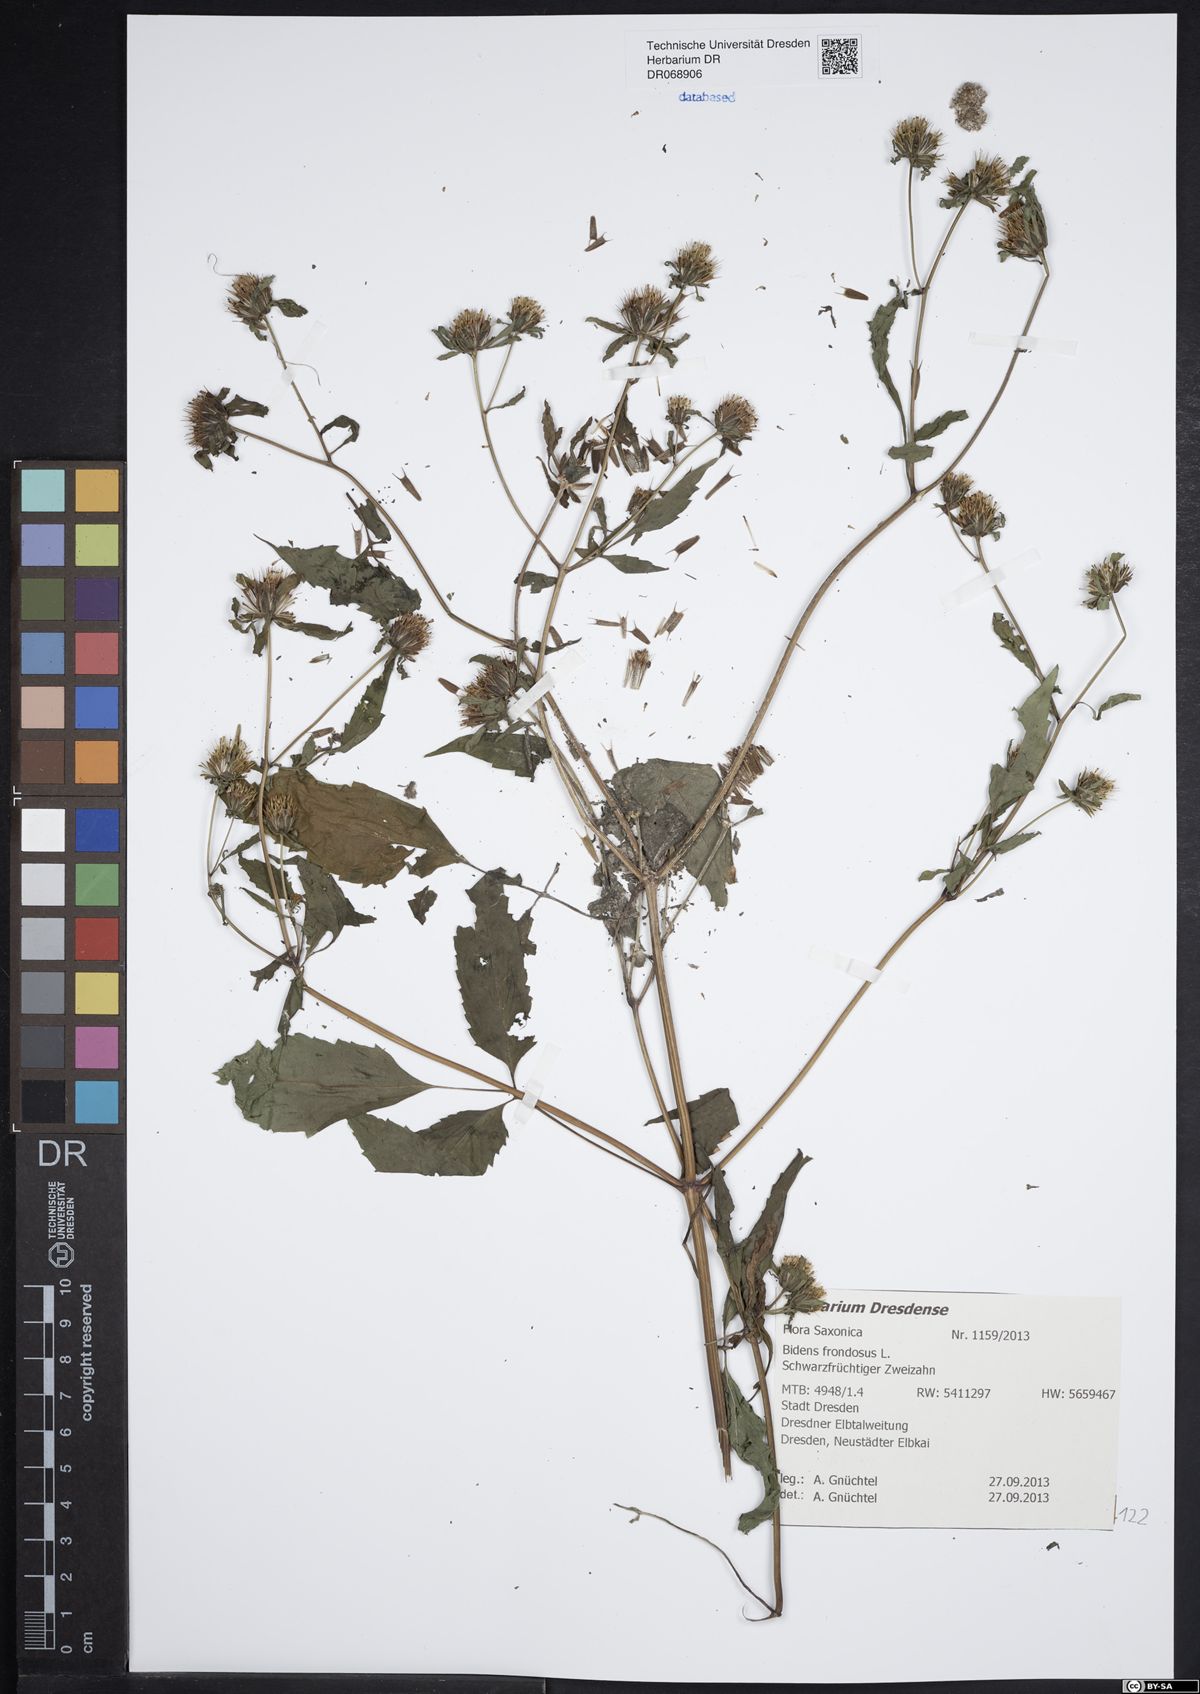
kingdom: Plantae
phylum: Tracheophyta
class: Magnoliopsida
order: Asterales
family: Asteraceae
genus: Bidens
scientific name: Bidens frondosa
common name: Beggarticks
